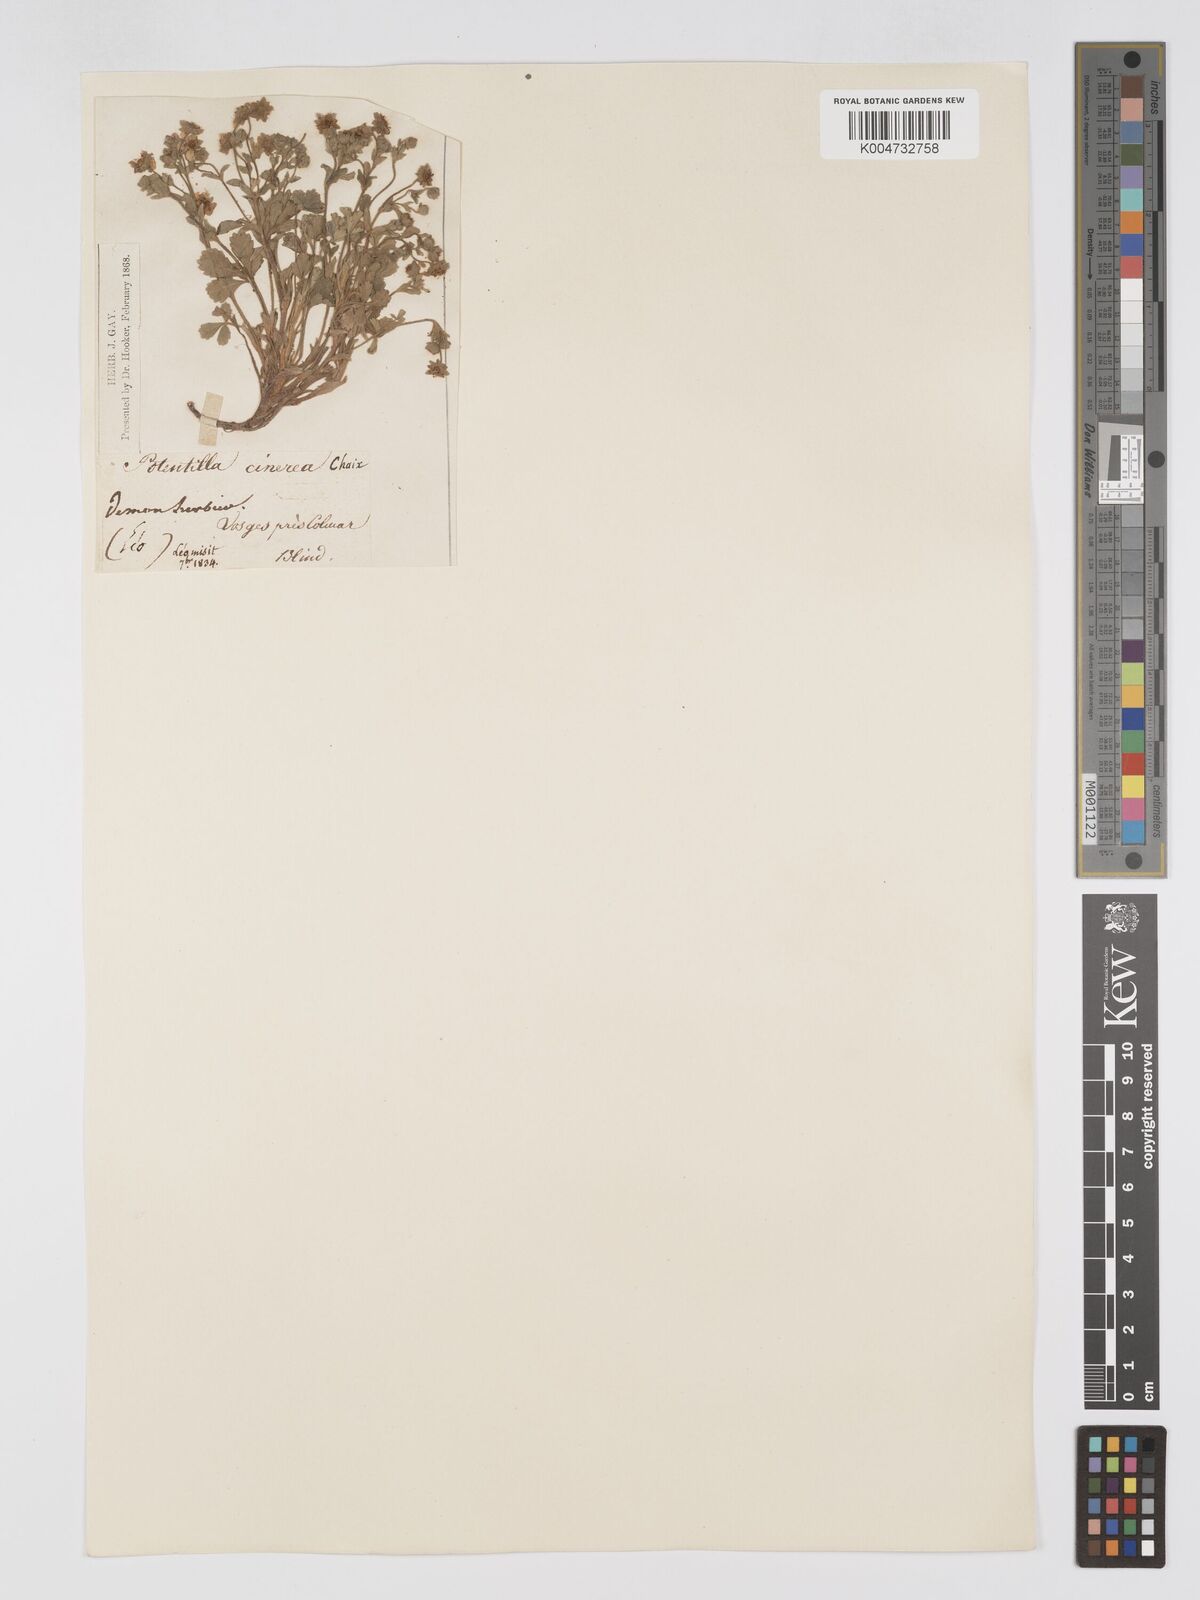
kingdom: Plantae
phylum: Tracheophyta
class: Magnoliopsida
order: Rosales
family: Rosaceae
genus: Potentilla
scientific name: Potentilla
